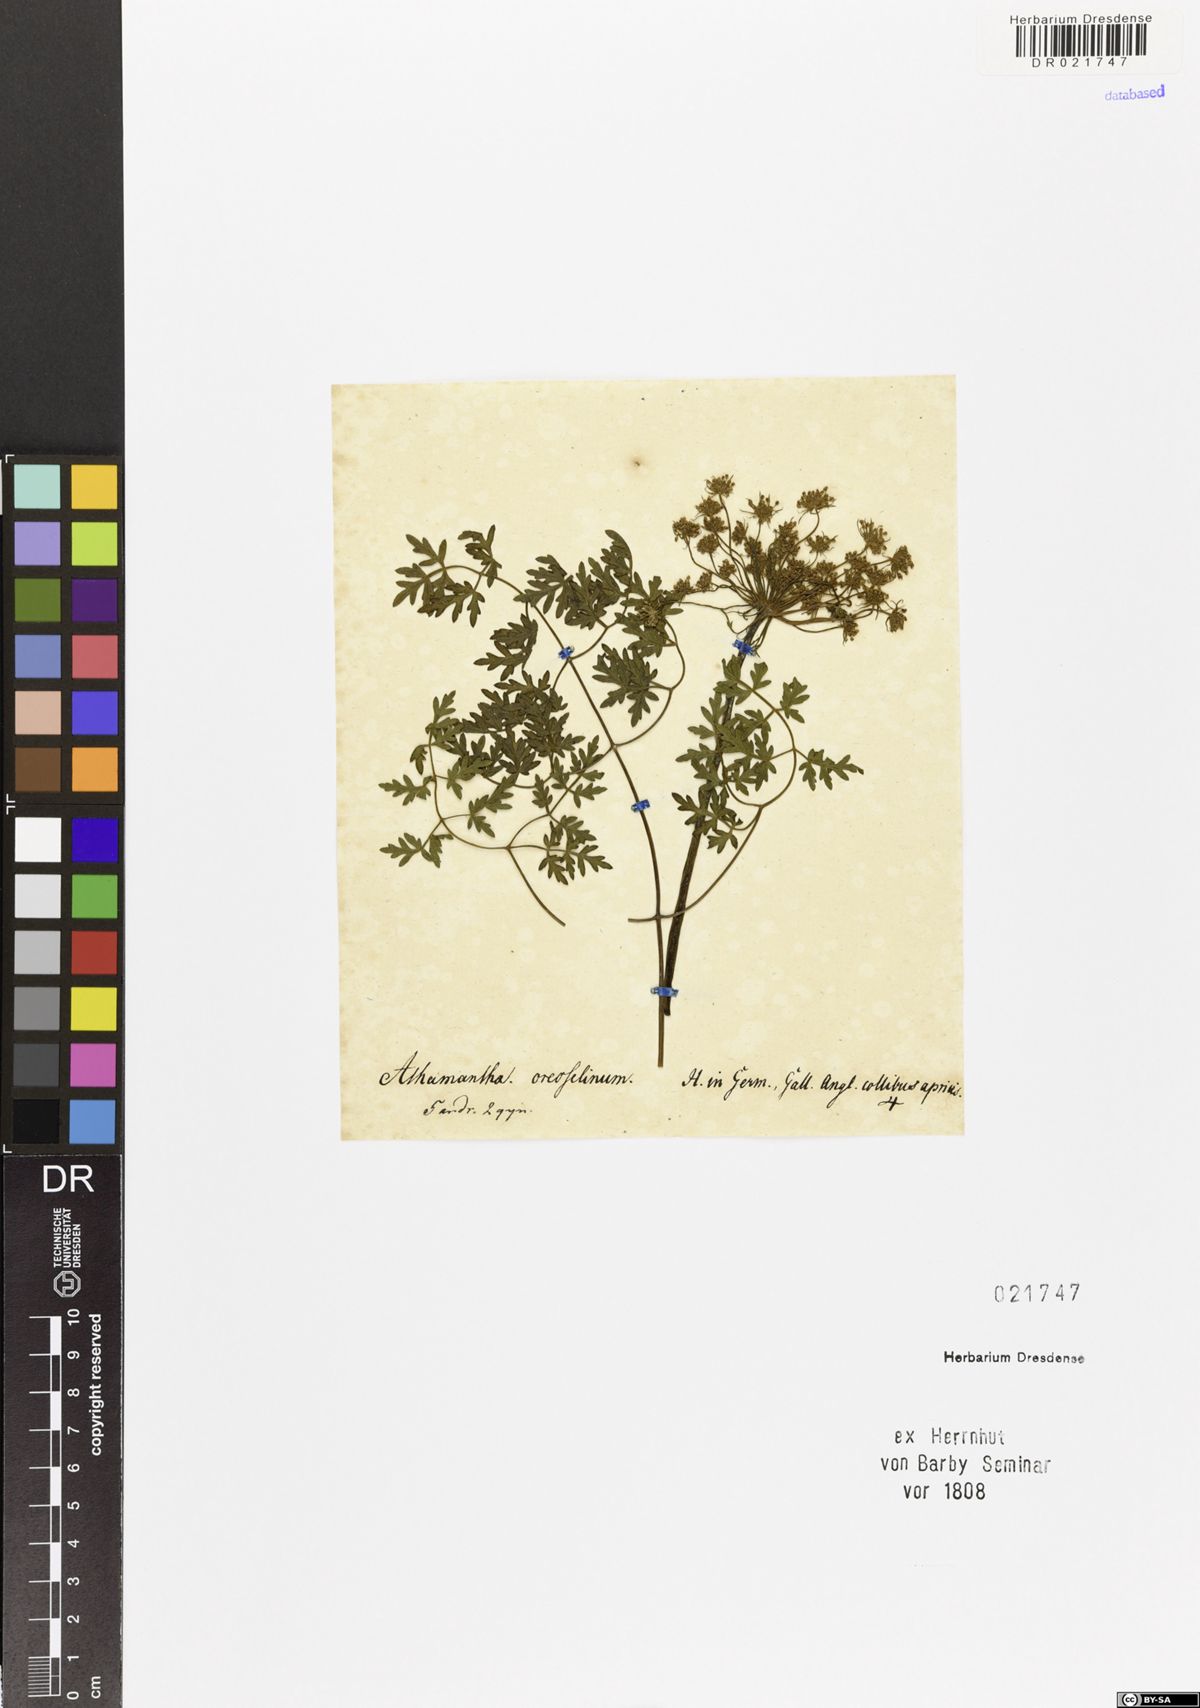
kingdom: Plantae
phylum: Tracheophyta
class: Magnoliopsida
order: Apiales
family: Apiaceae
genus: Oreoselinum
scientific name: Oreoselinum nigrum
